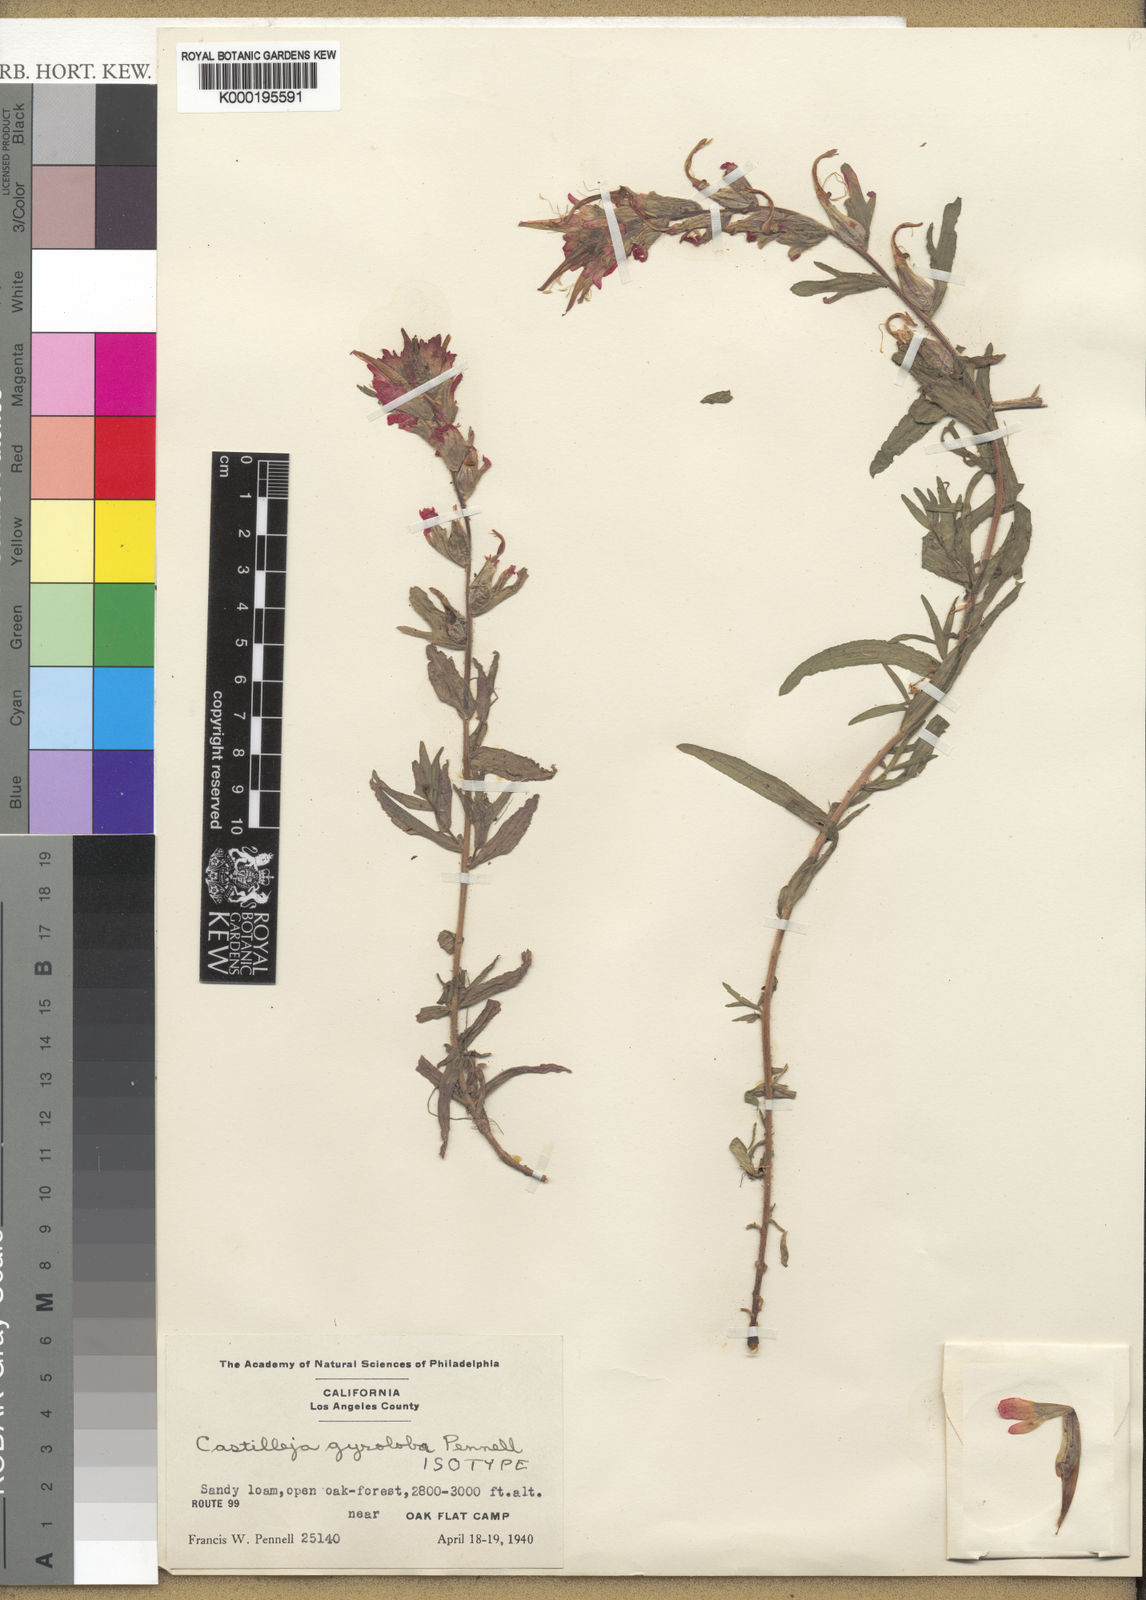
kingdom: Plantae
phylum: Tracheophyta
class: Magnoliopsida
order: Lamiales
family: Orobanchaceae
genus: Castilleja
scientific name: Castilleja martini
